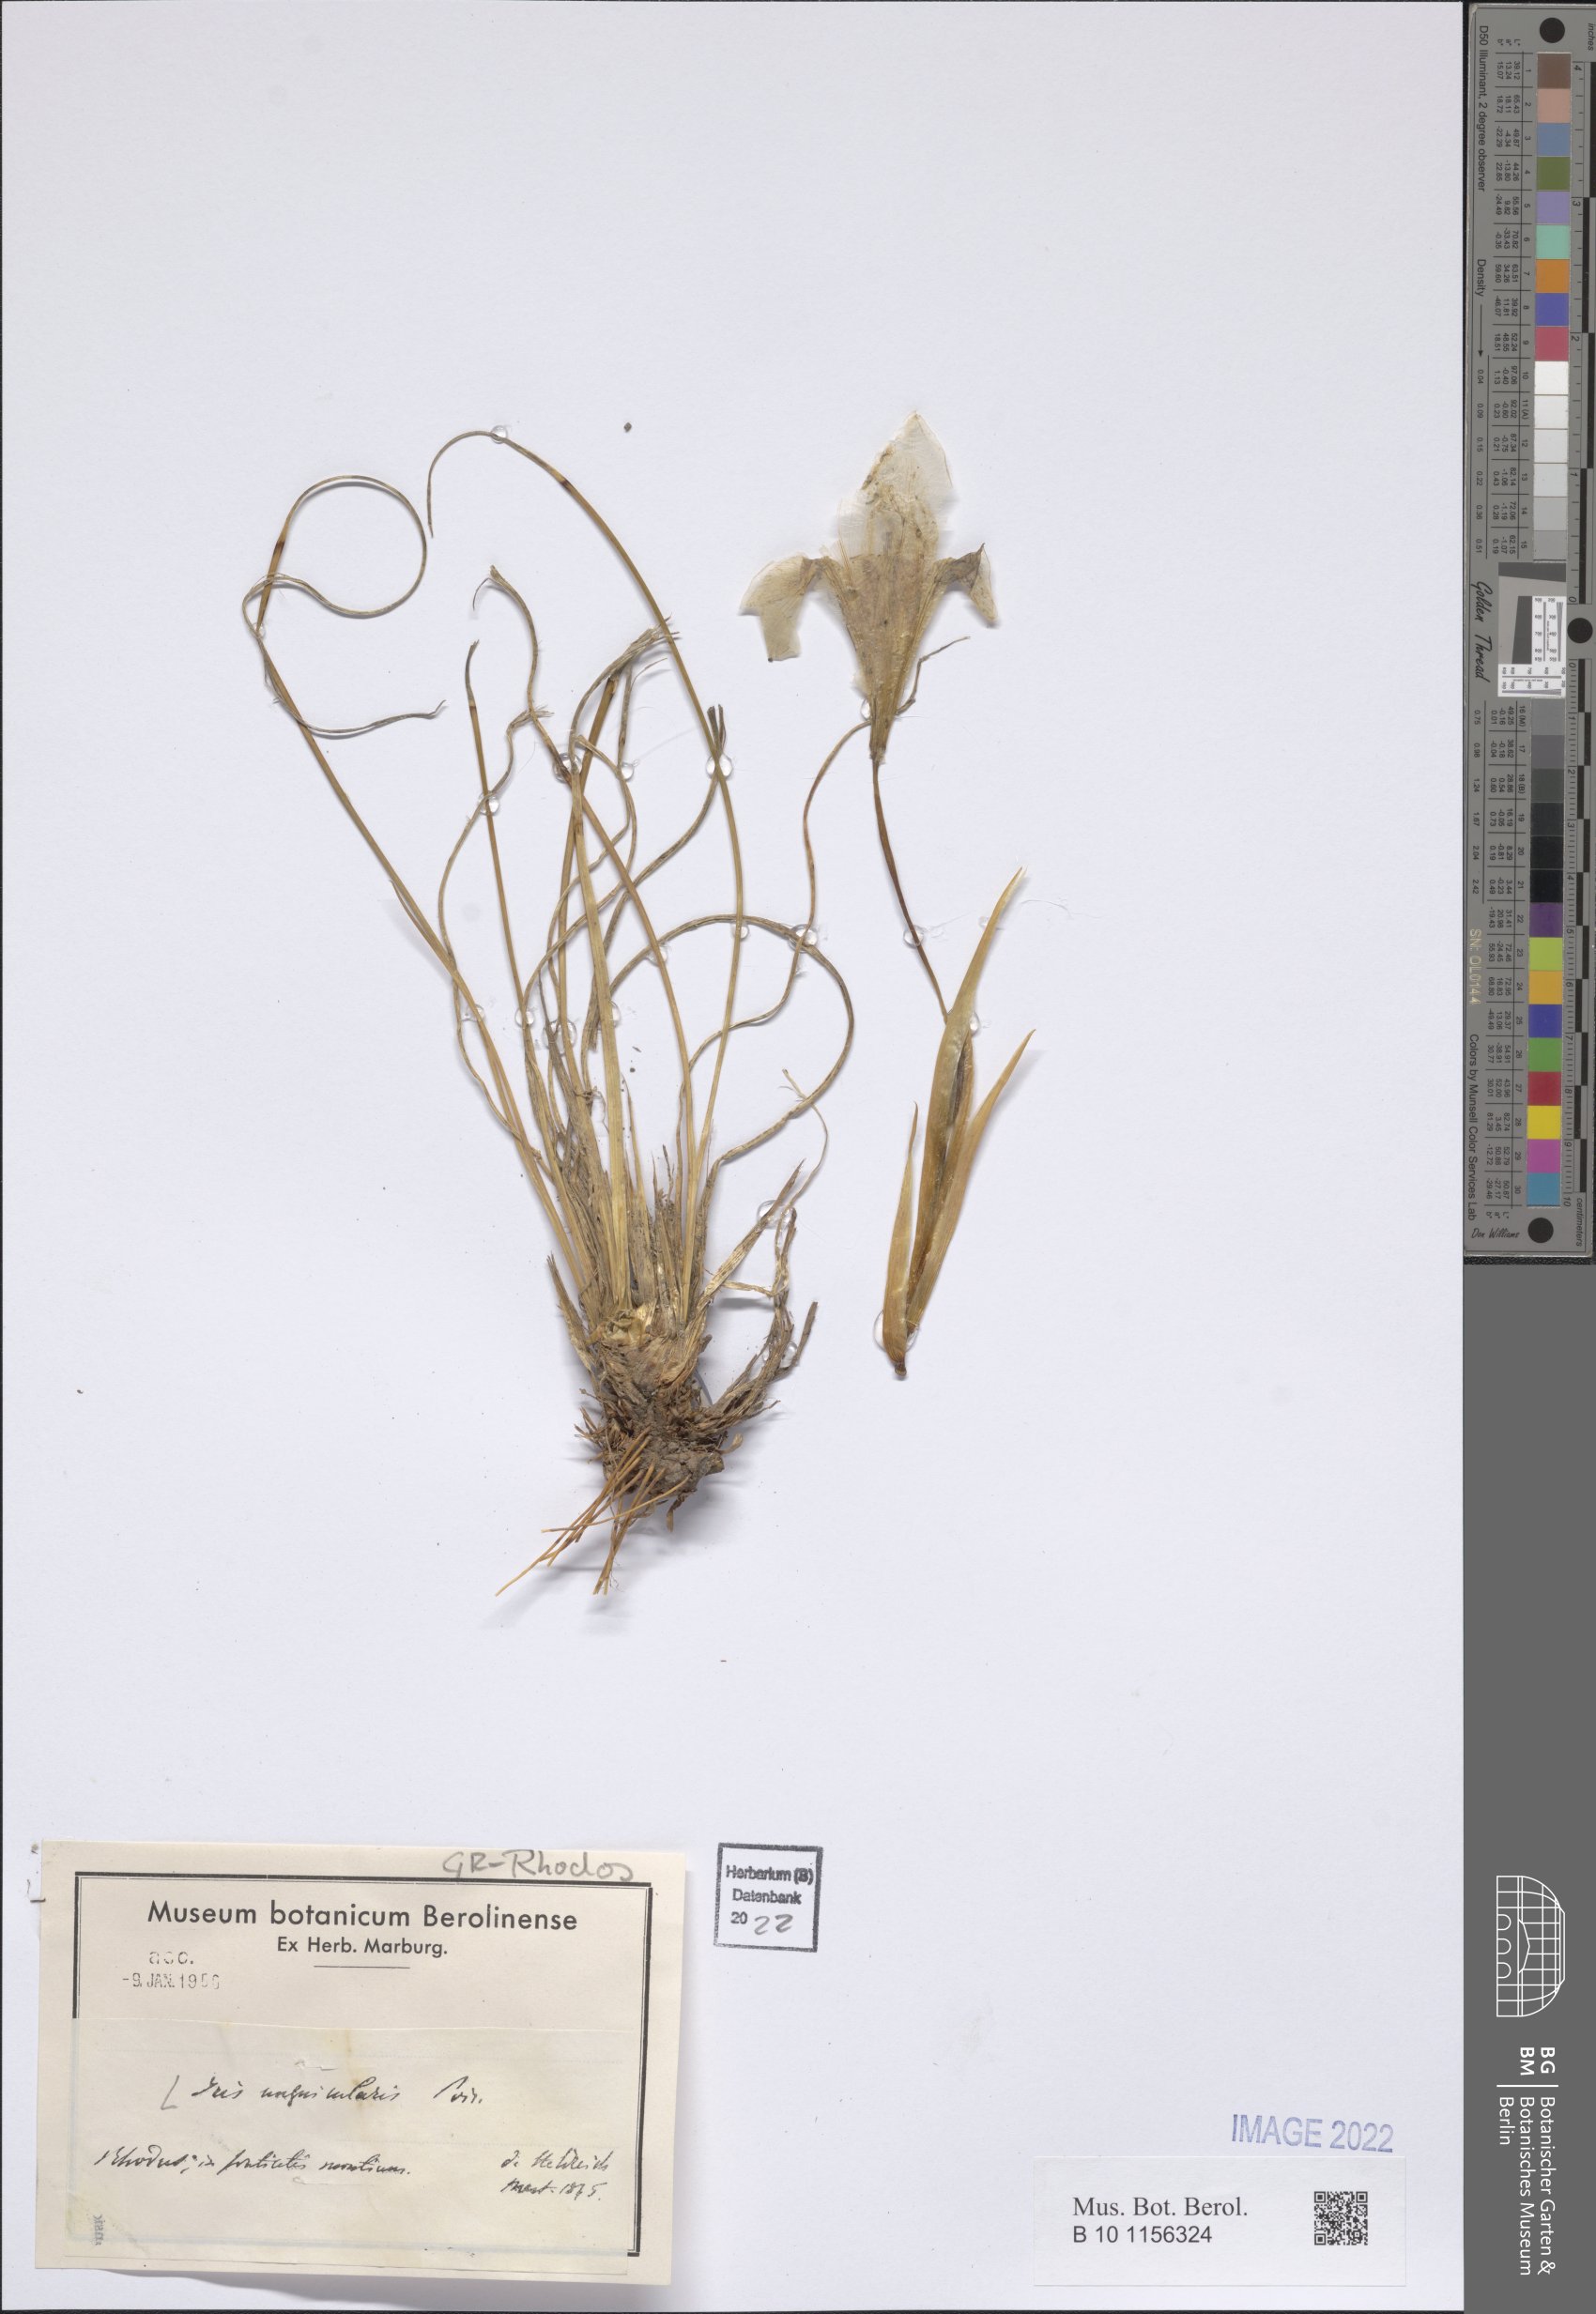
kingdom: Plantae
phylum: Tracheophyta
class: Liliopsida
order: Asparagales
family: Iridaceae
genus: Iris
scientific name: Iris unguicularis
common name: Algerian iris
